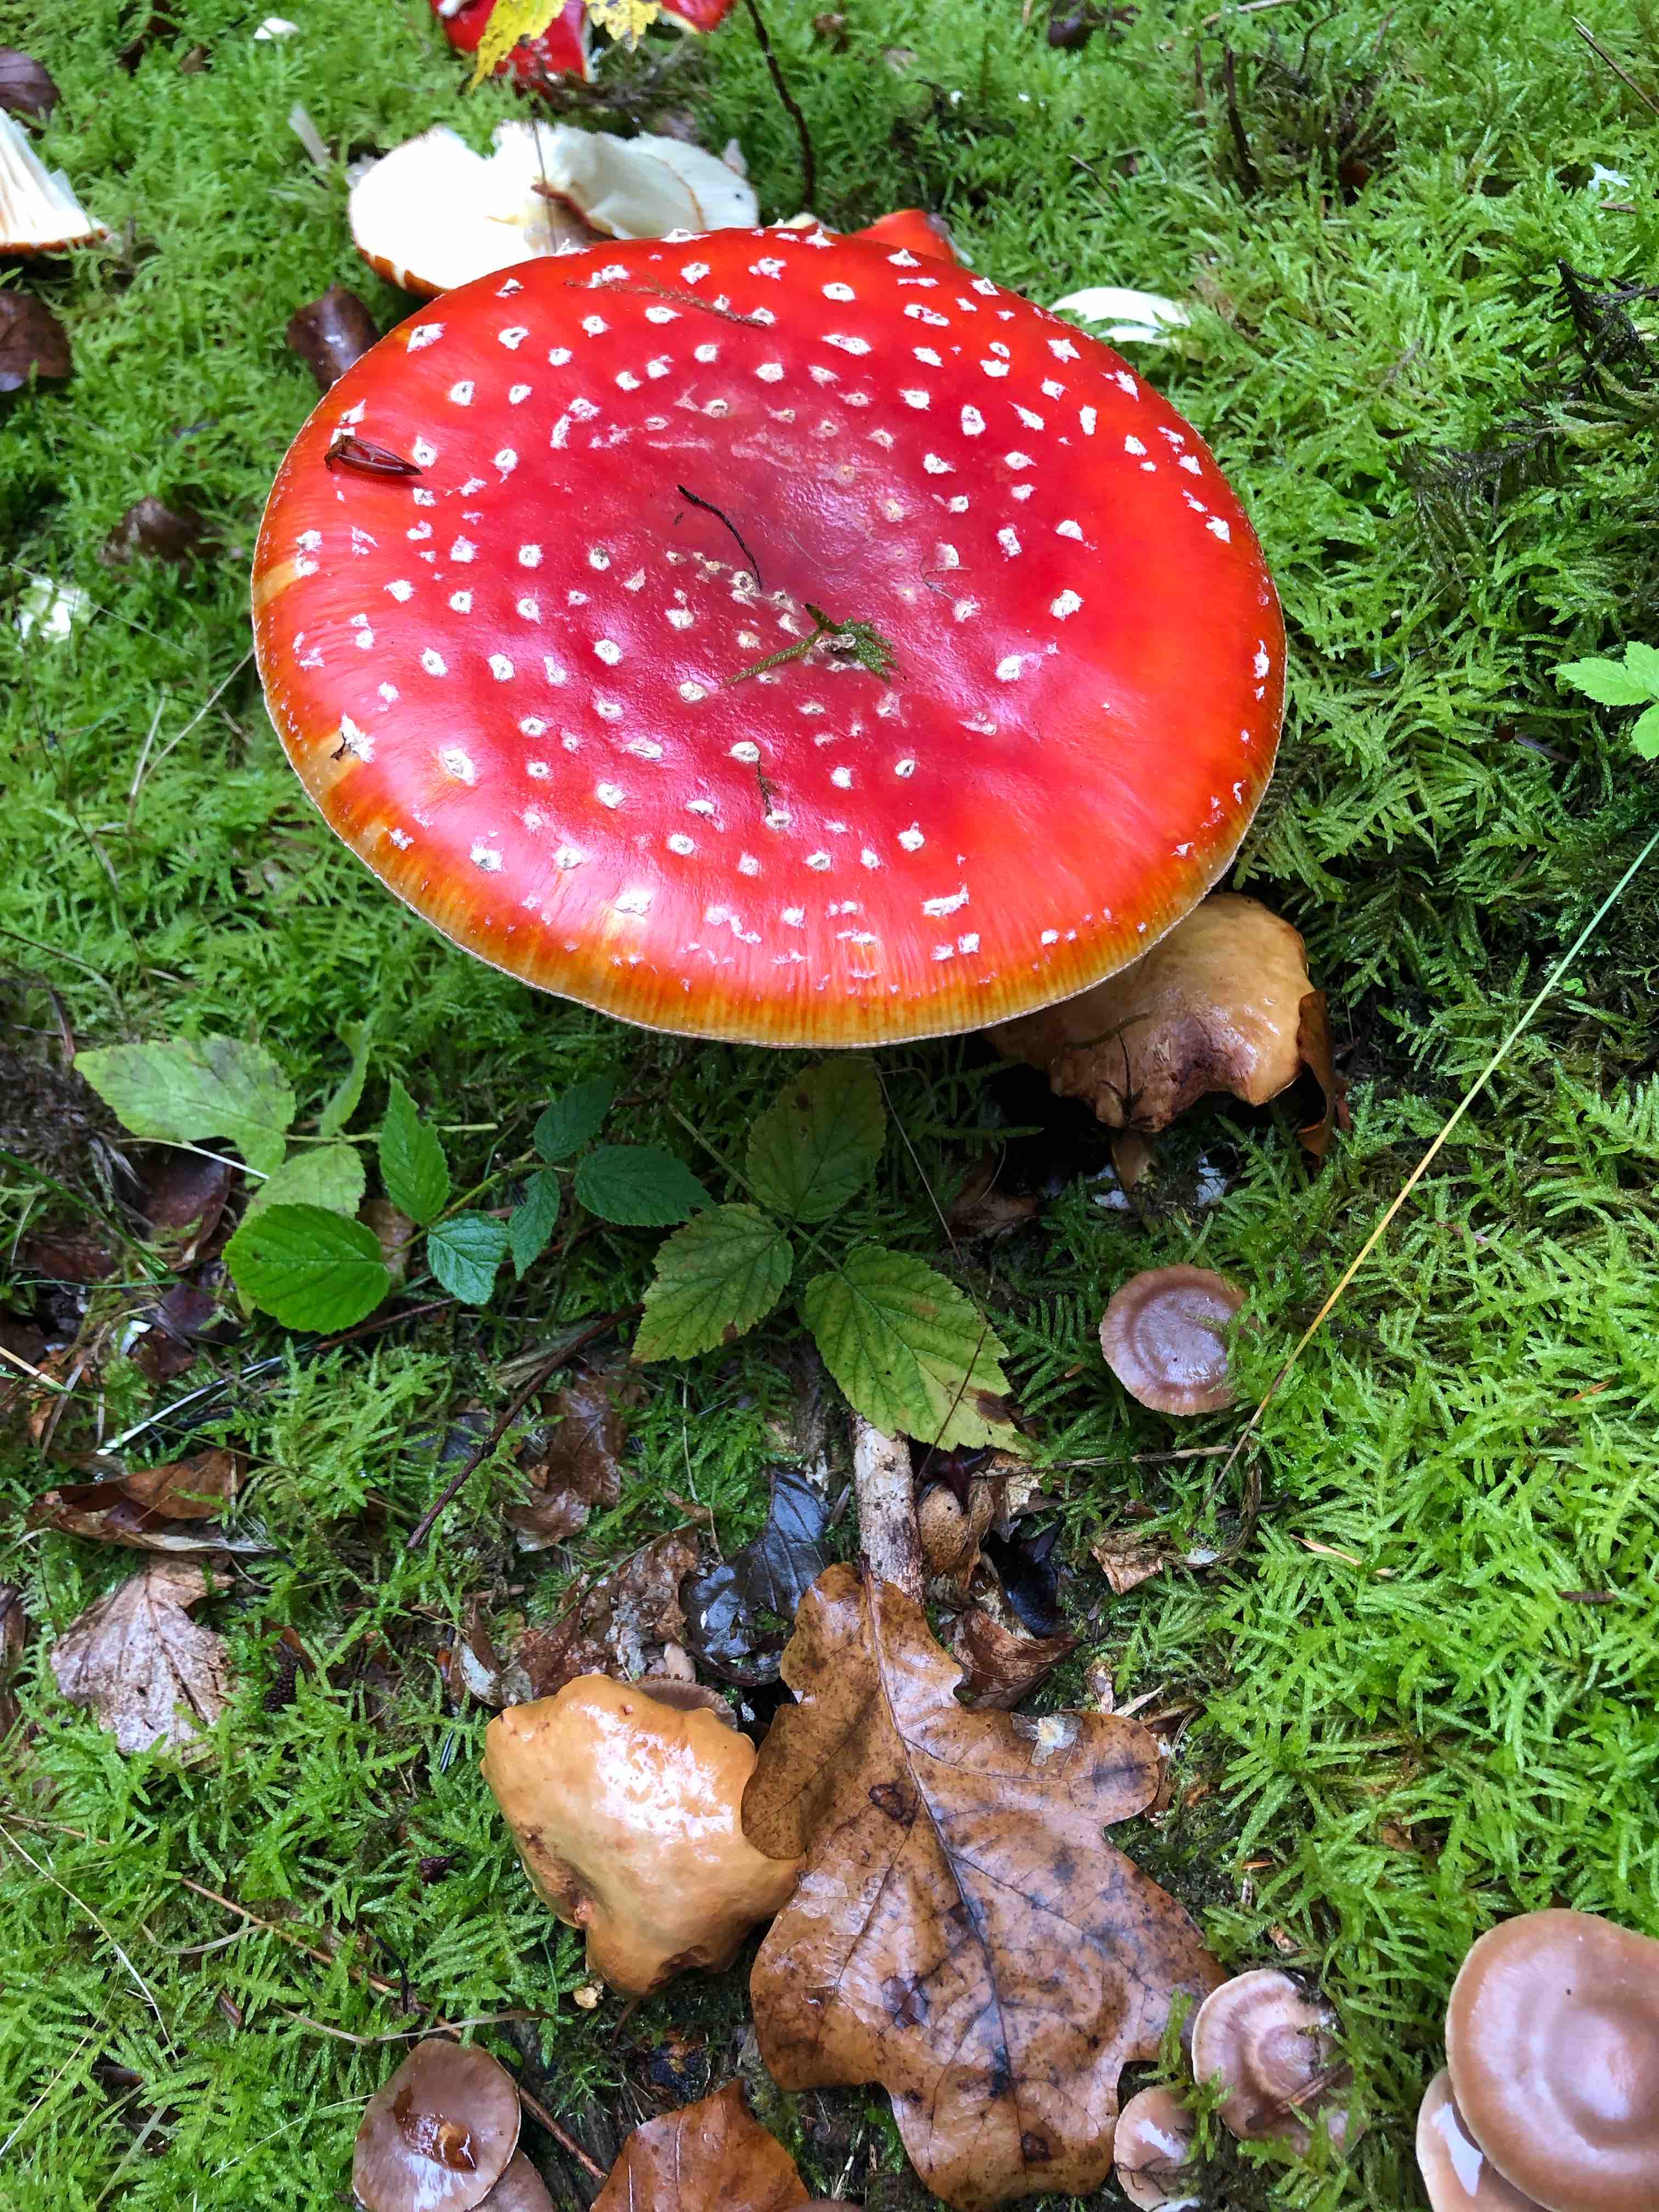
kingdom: Fungi
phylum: Basidiomycota
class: Agaricomycetes
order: Agaricales
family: Amanitaceae
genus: Amanita
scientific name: Amanita muscaria
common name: rød fluesvamp
